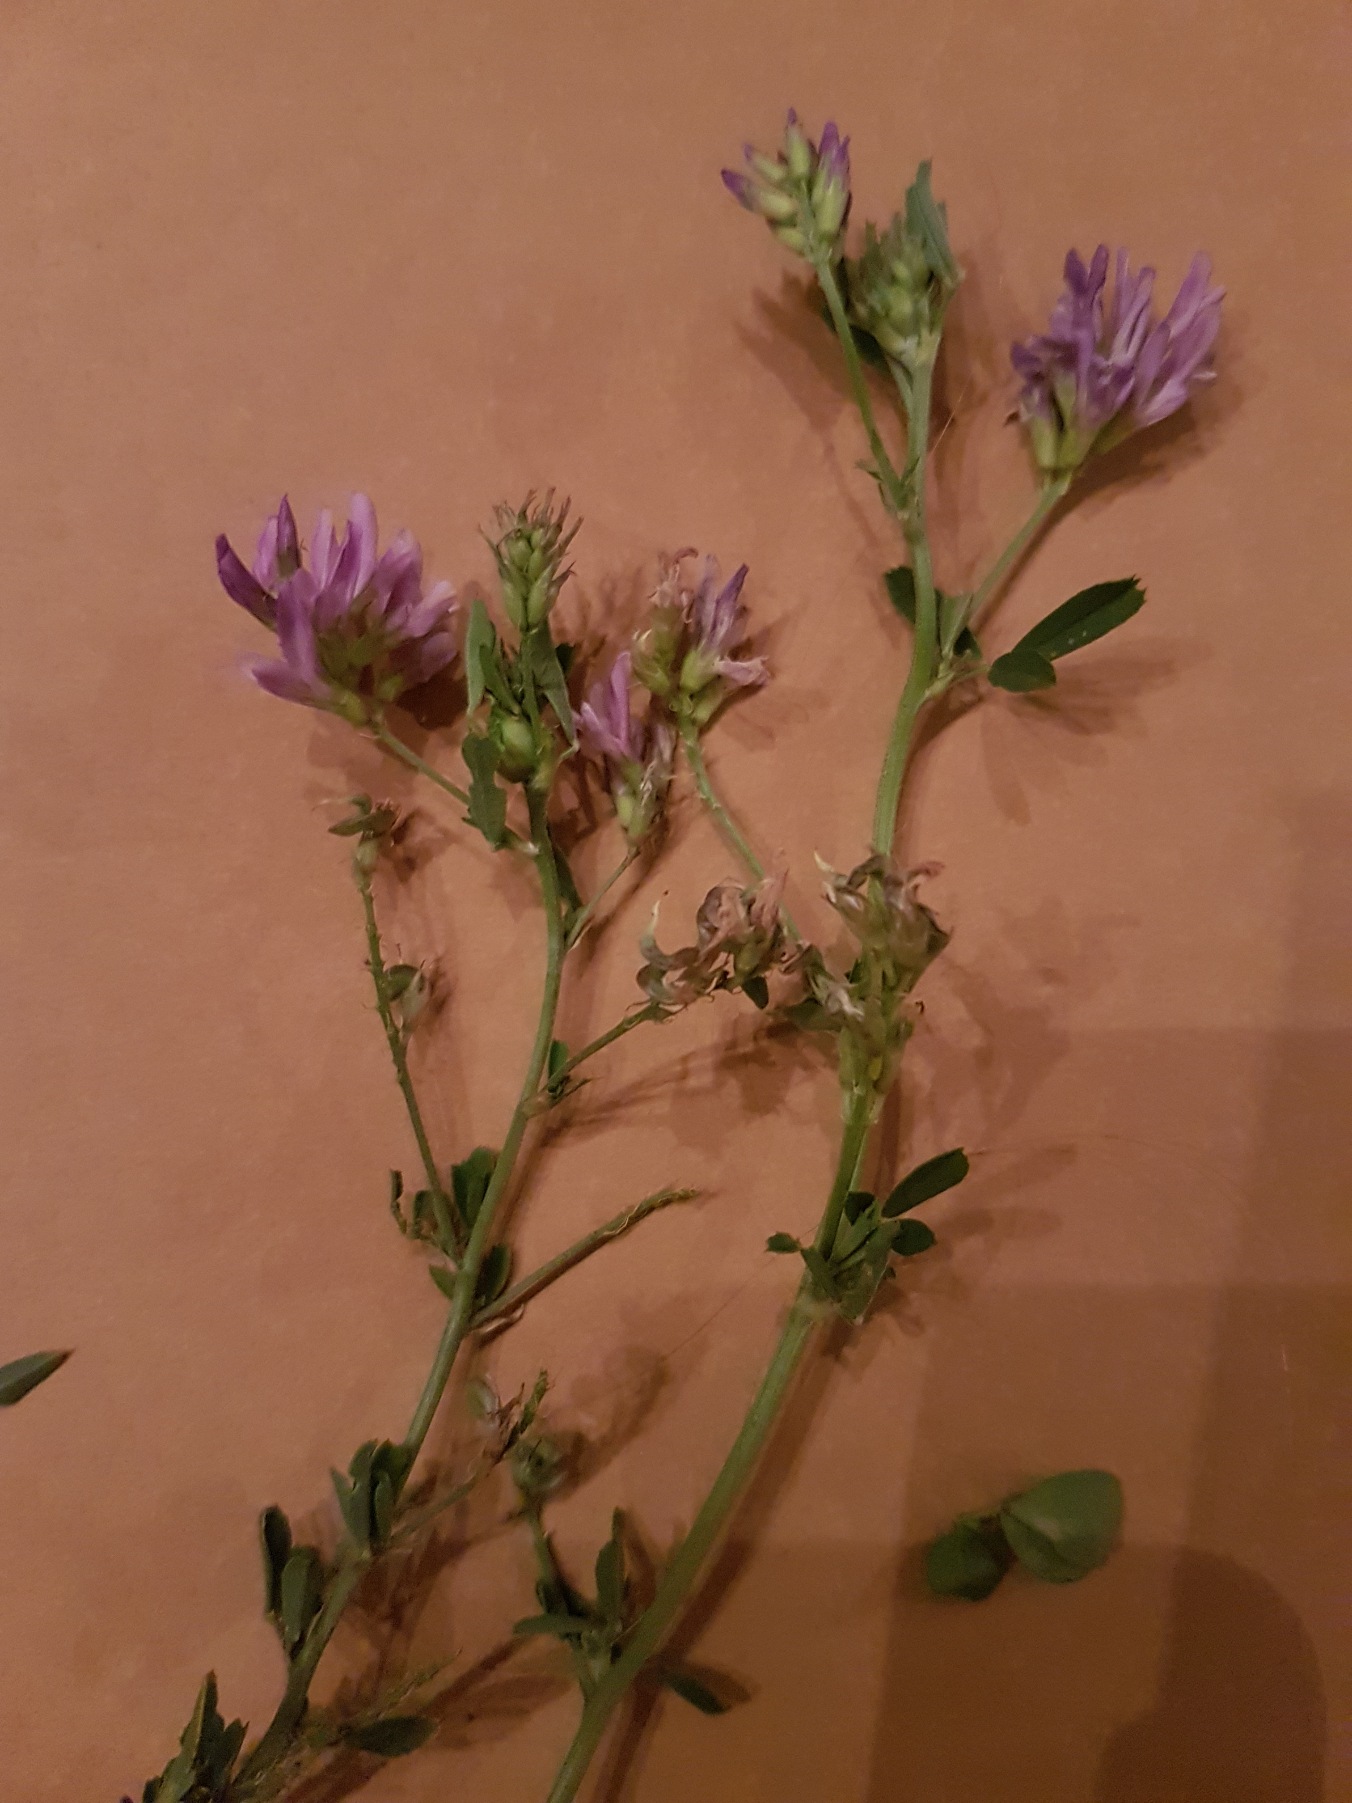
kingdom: Plantae
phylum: Tracheophyta
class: Magnoliopsida
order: Fabales
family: Fabaceae
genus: Medicago
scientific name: Medicago sativa
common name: Lucerne
